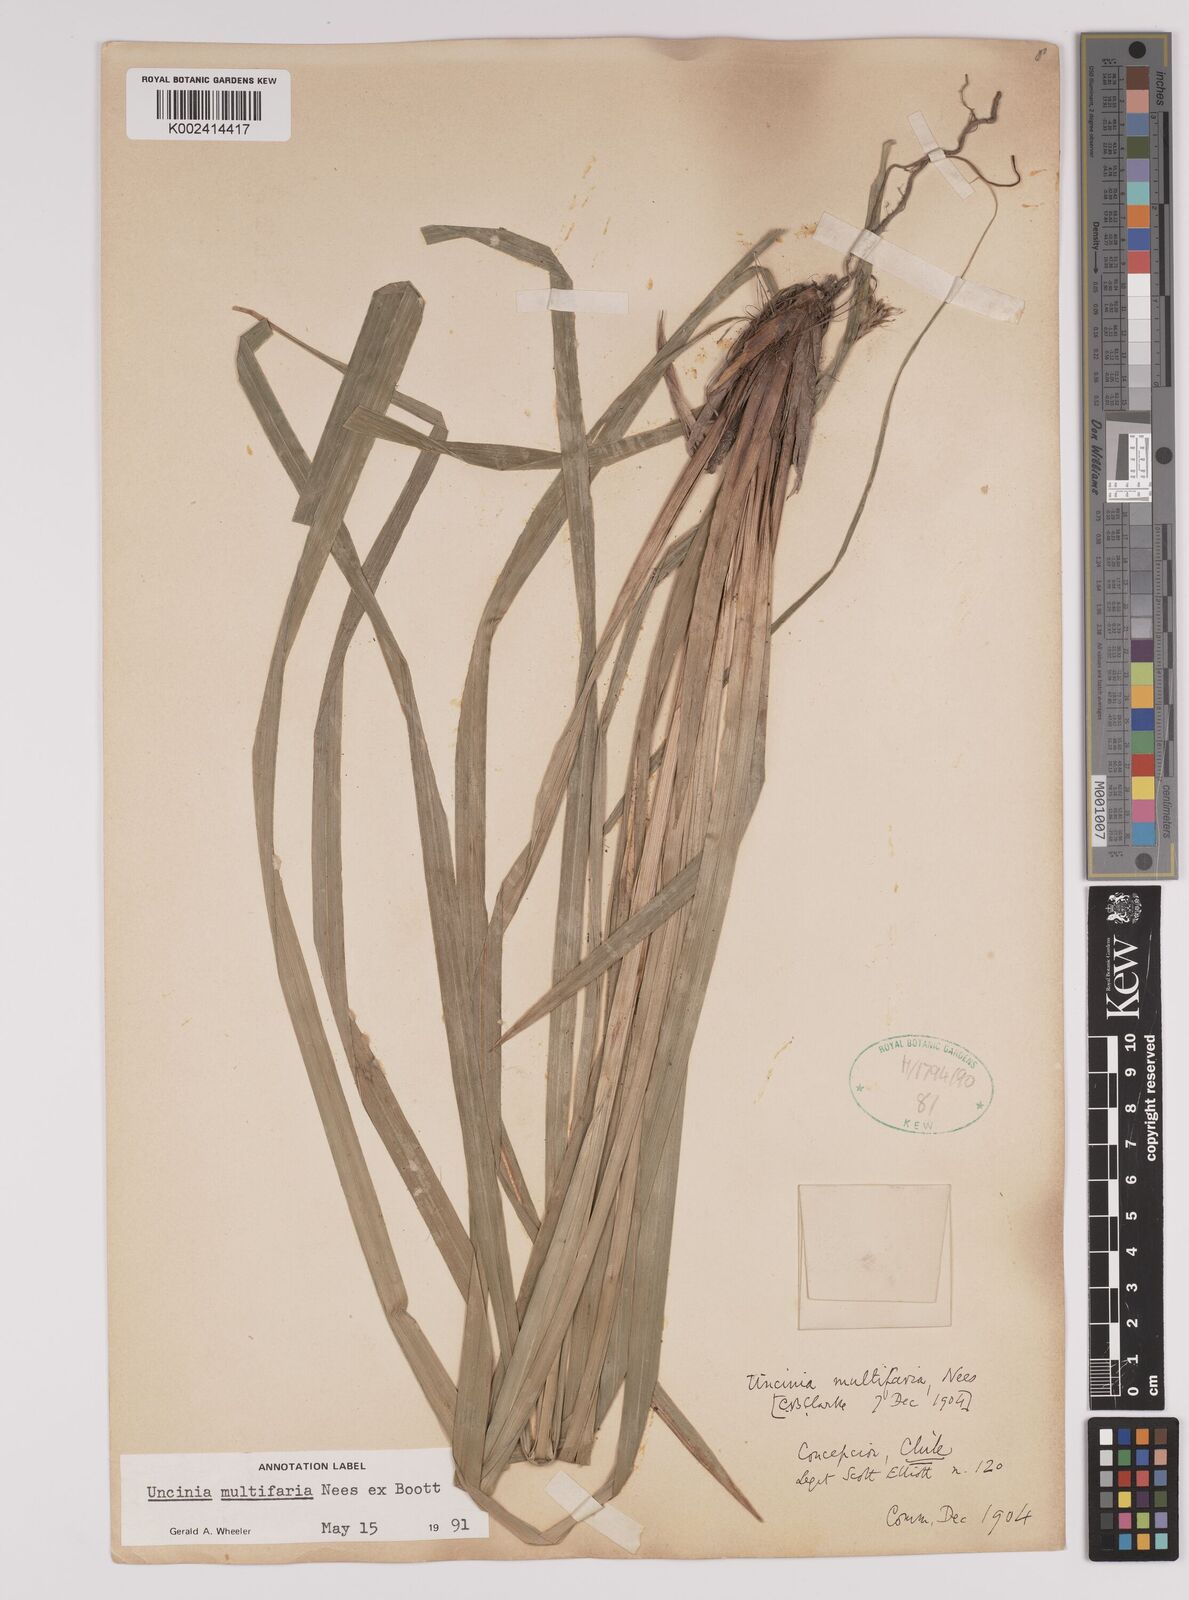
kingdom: Plantae
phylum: Tracheophyta
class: Liliopsida
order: Poales
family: Cyperaceae
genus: Carex
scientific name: Carex multifaria
